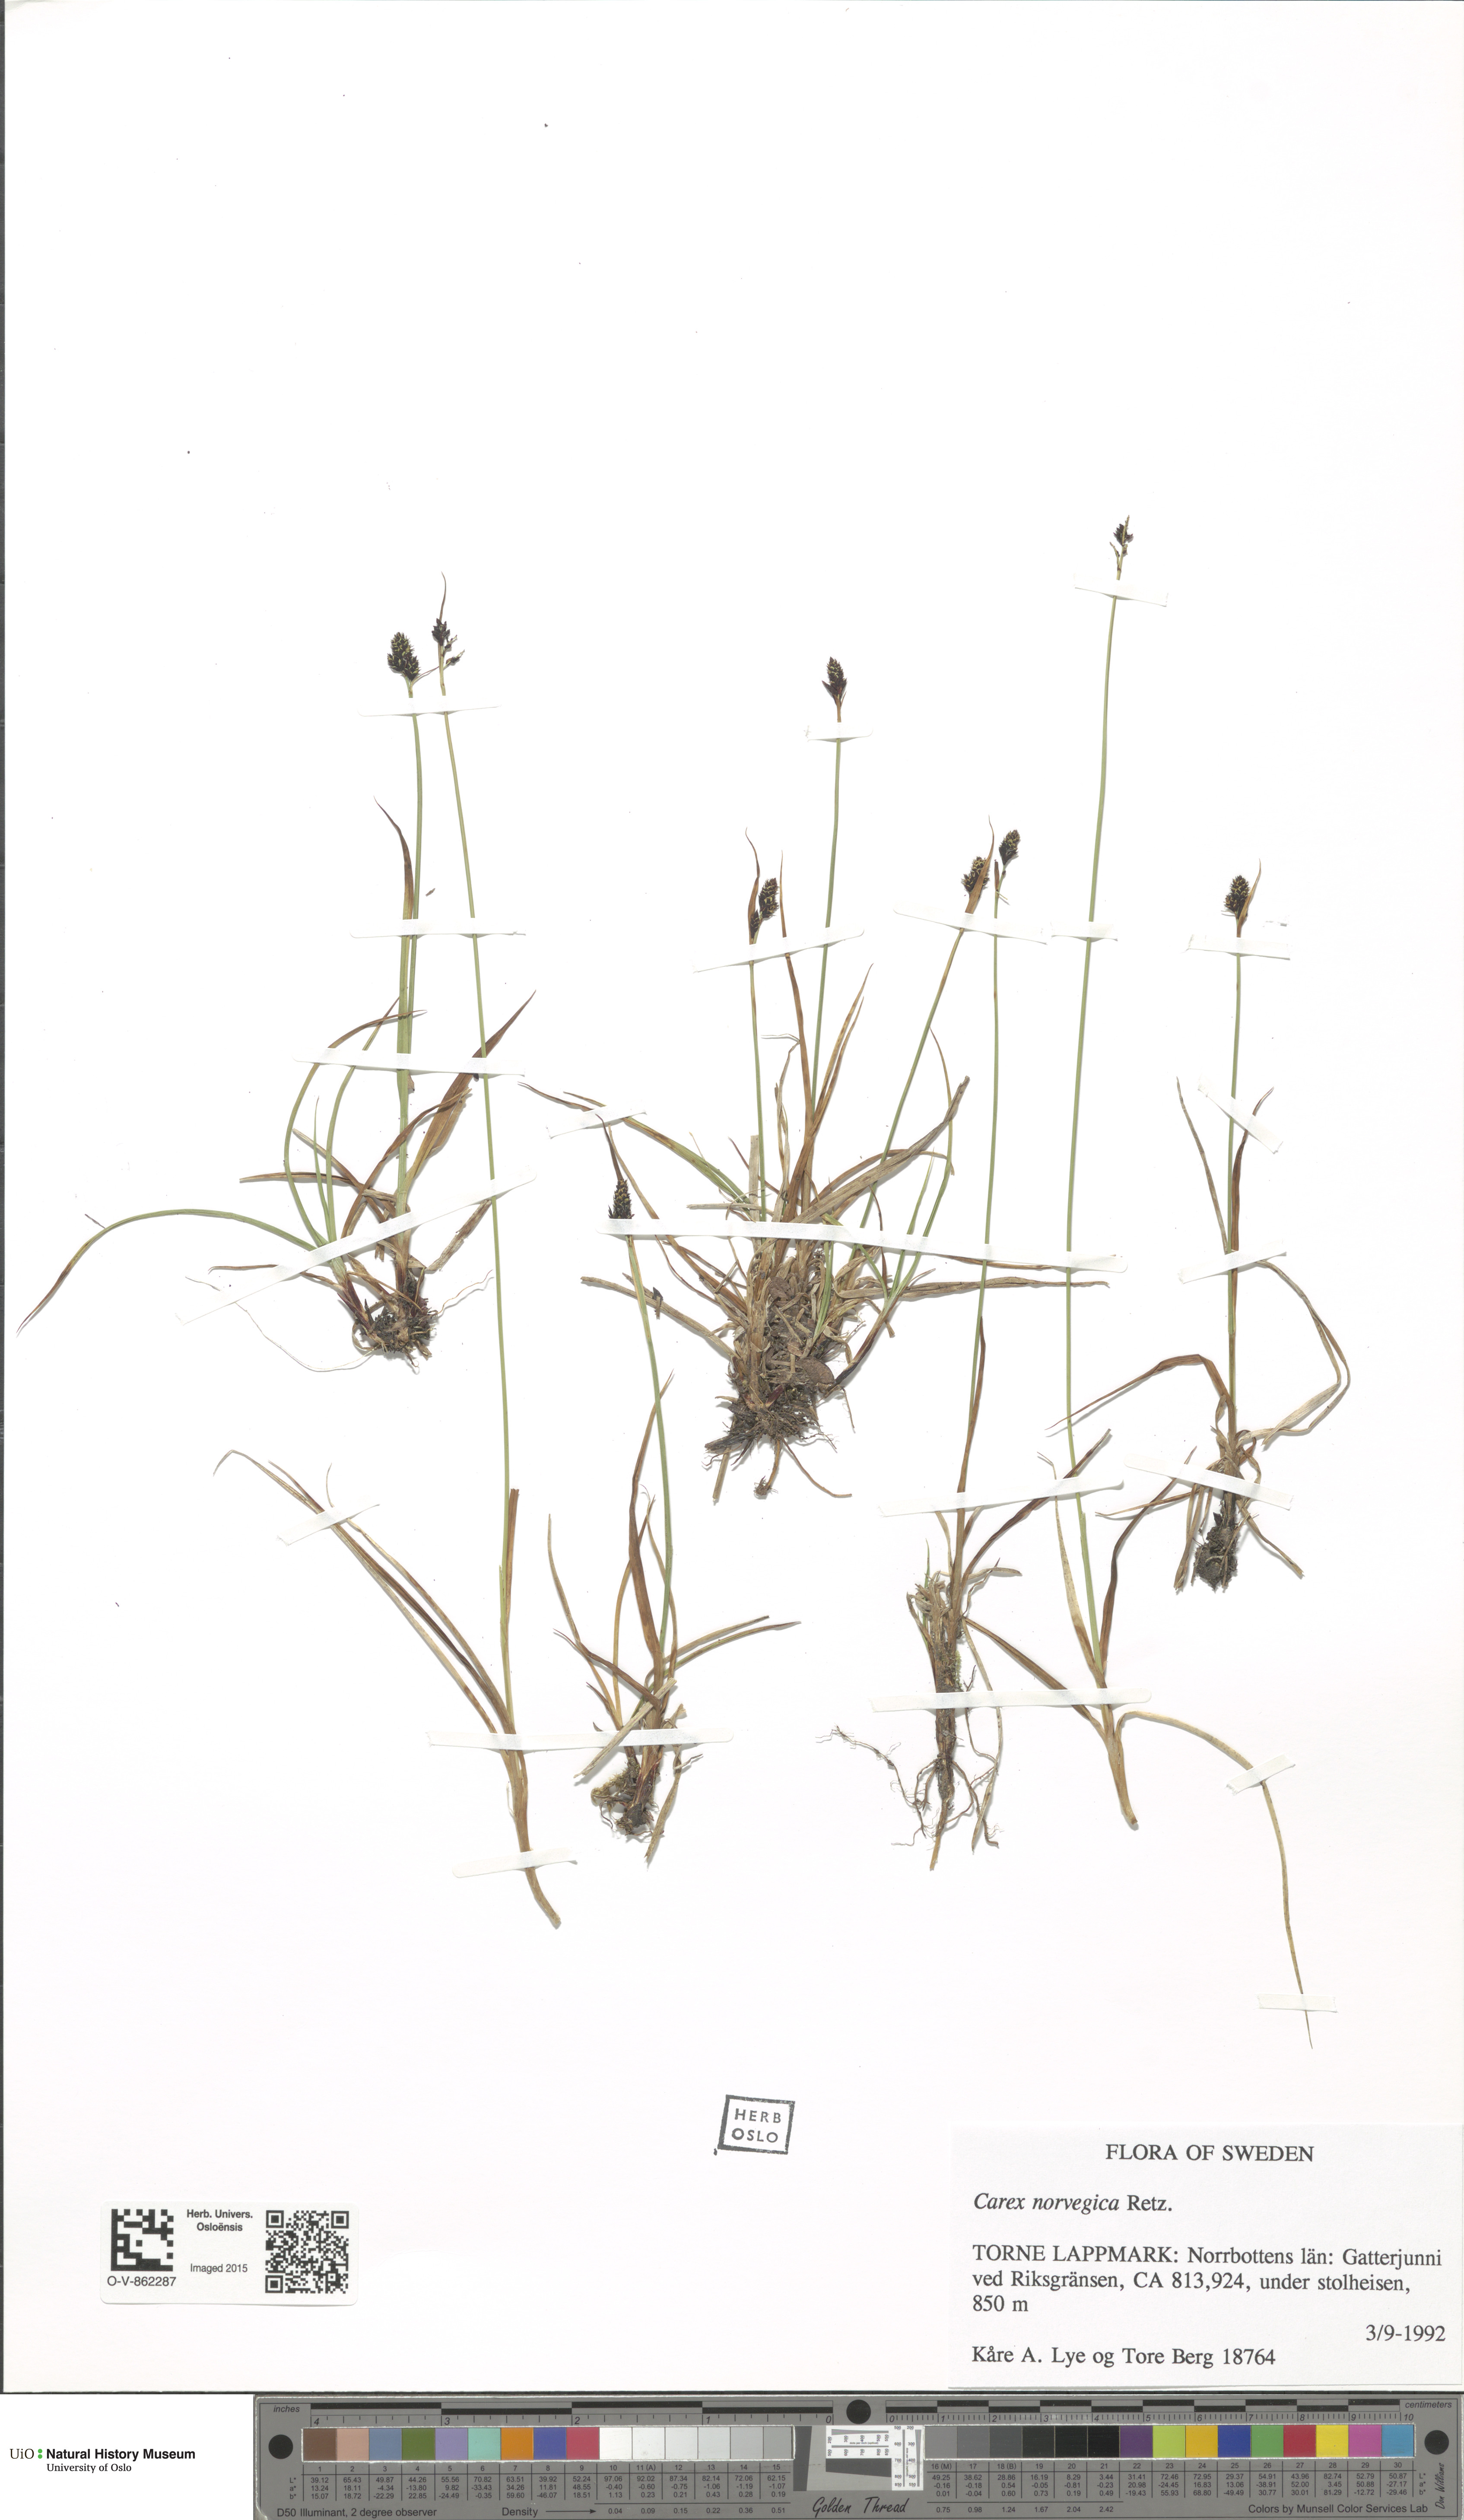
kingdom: Plantae
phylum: Tracheophyta
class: Liliopsida
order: Poales
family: Cyperaceae
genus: Carex
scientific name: Carex norvegica
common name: Close-headed alpine-sedge
